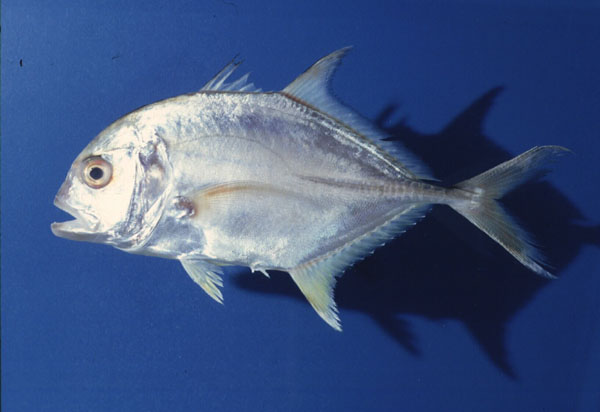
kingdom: Animalia
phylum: Chordata
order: Perciformes
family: Carangidae
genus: Caranx
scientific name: Caranx ignobilis
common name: Giant trevally
